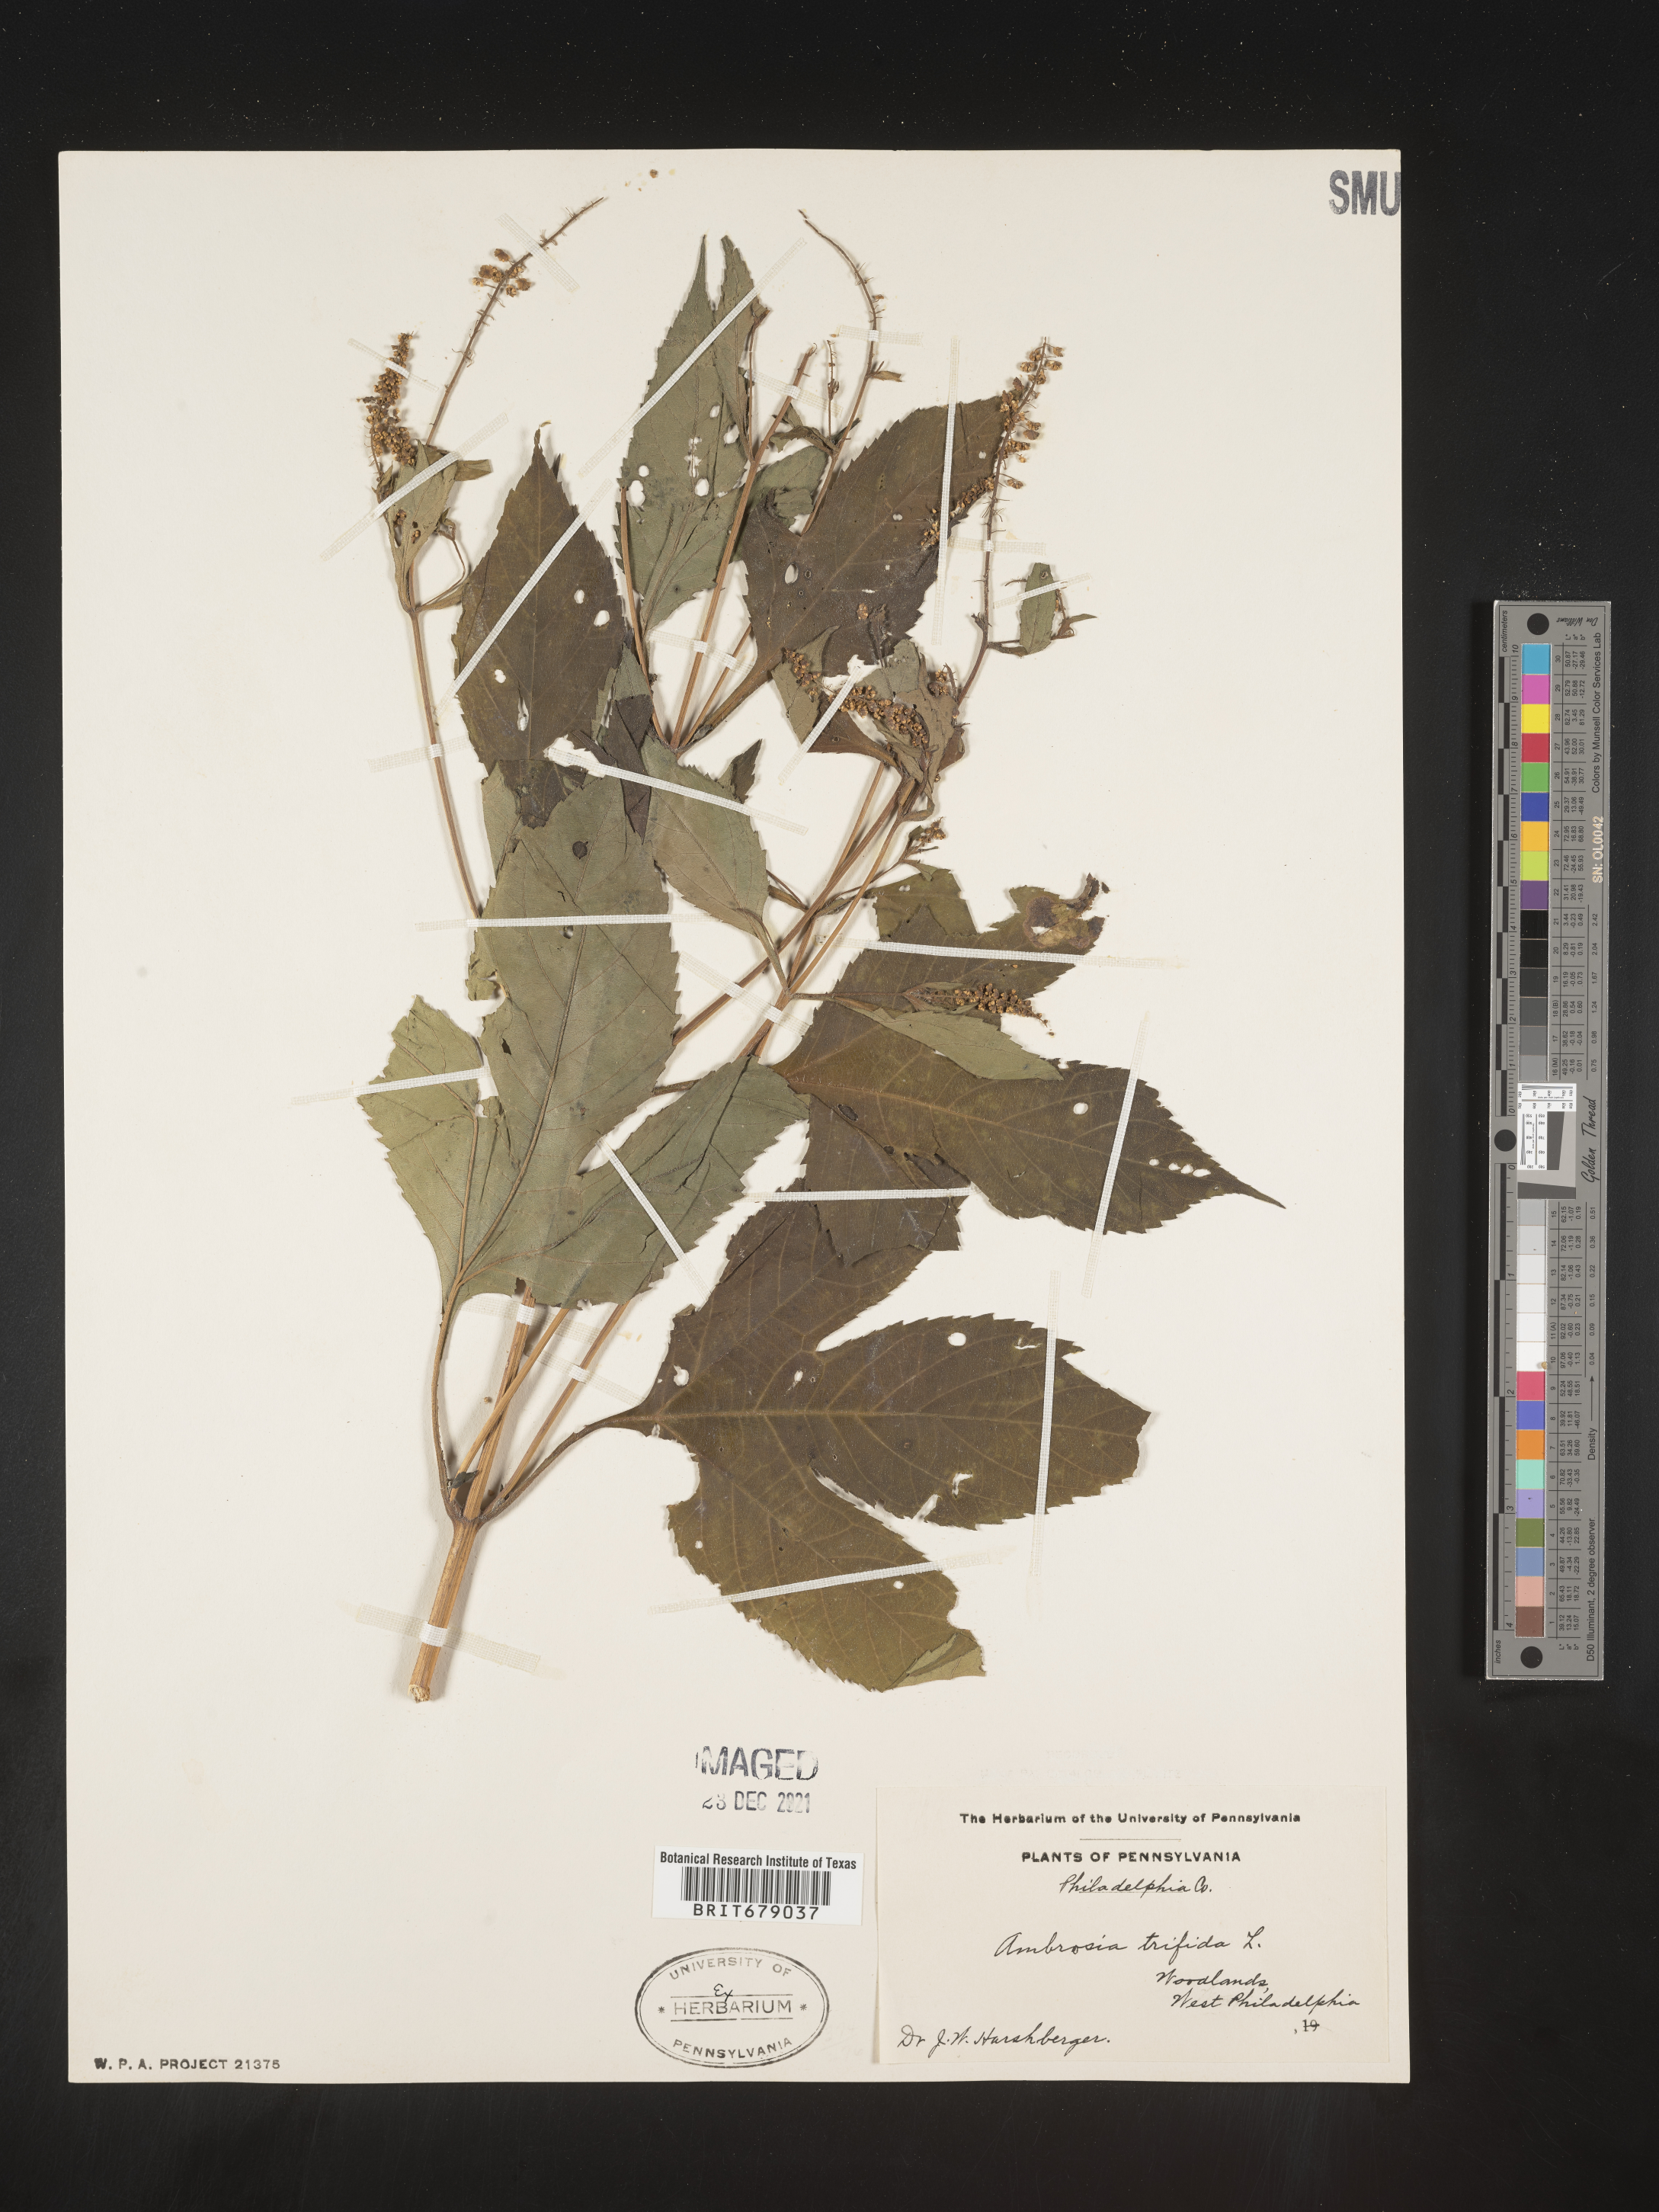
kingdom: Plantae
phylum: Tracheophyta
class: Magnoliopsida
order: Asterales
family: Asteraceae
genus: Ambrosia
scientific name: Ambrosia trifida
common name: Giant ragweed
